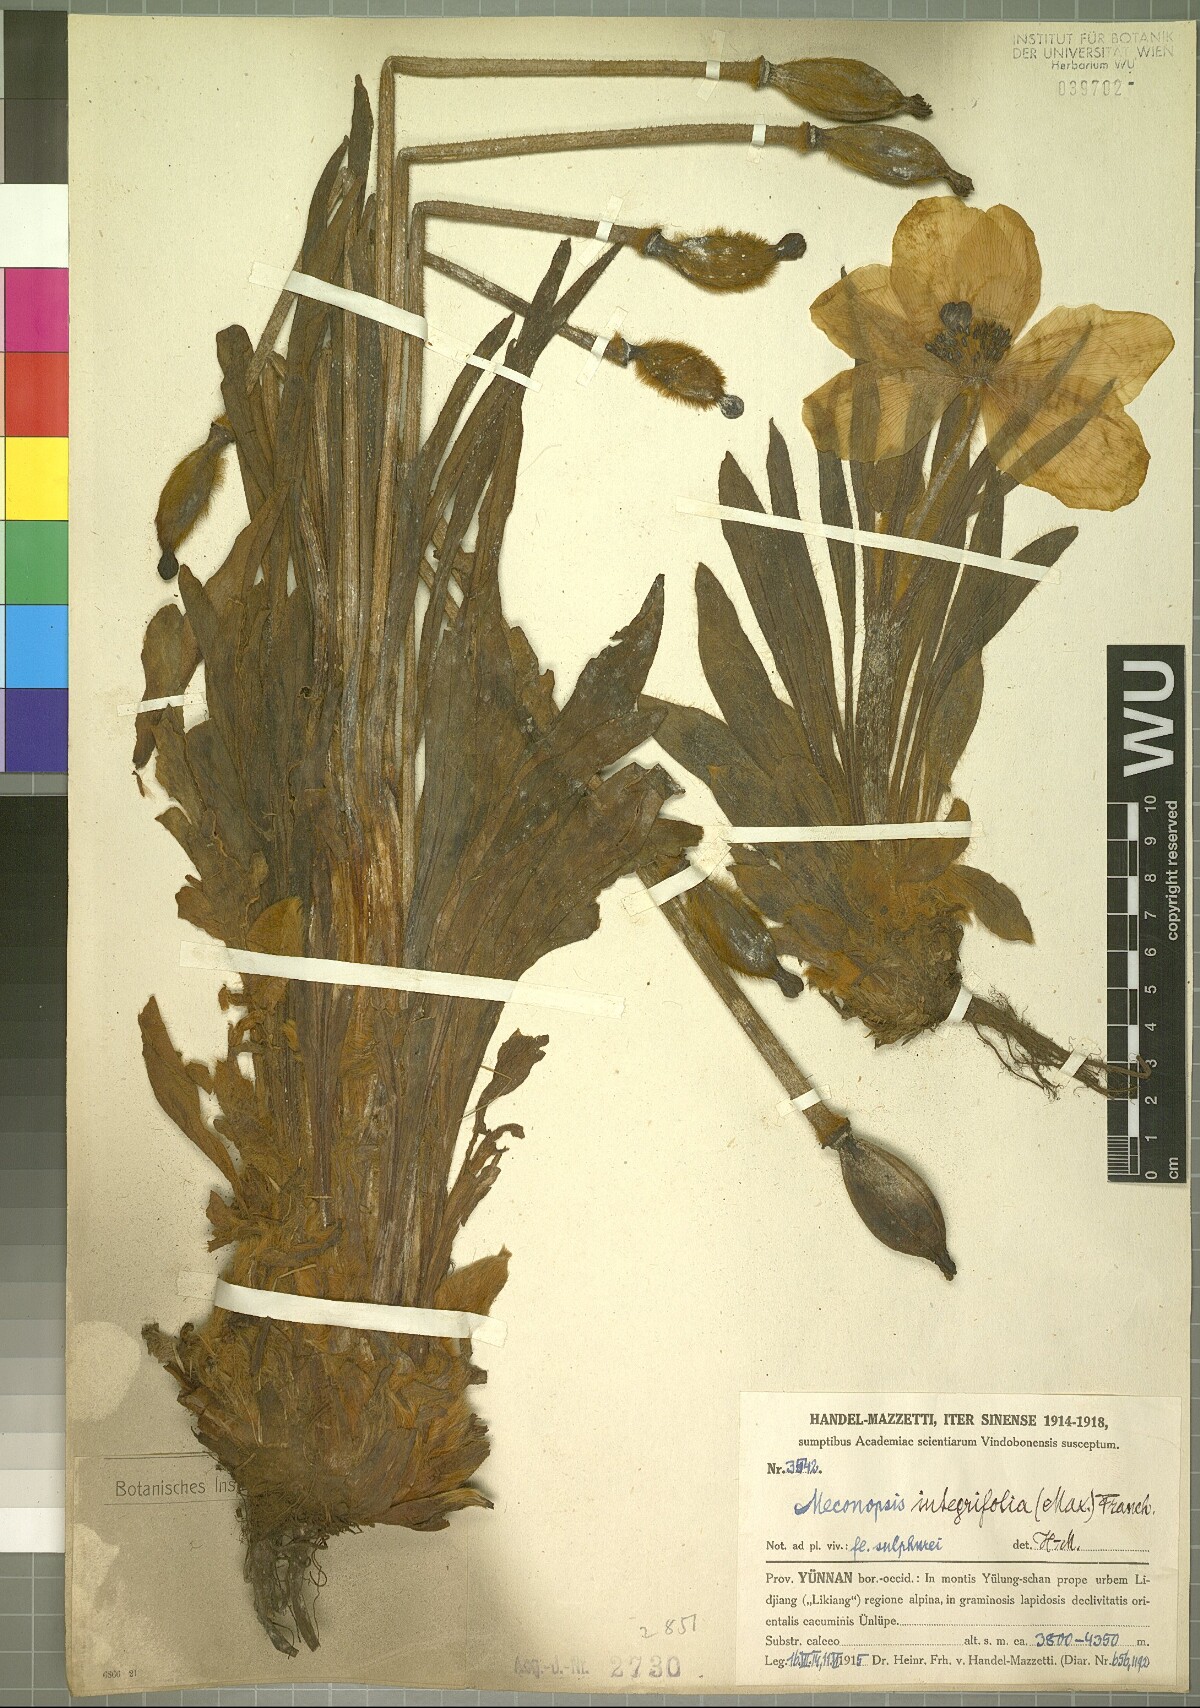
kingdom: Plantae
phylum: Tracheophyta
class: Magnoliopsida
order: Ranunculales
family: Papaveraceae
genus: Meconopsis
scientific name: Meconopsis integrifolia
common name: Yellow poppywort
